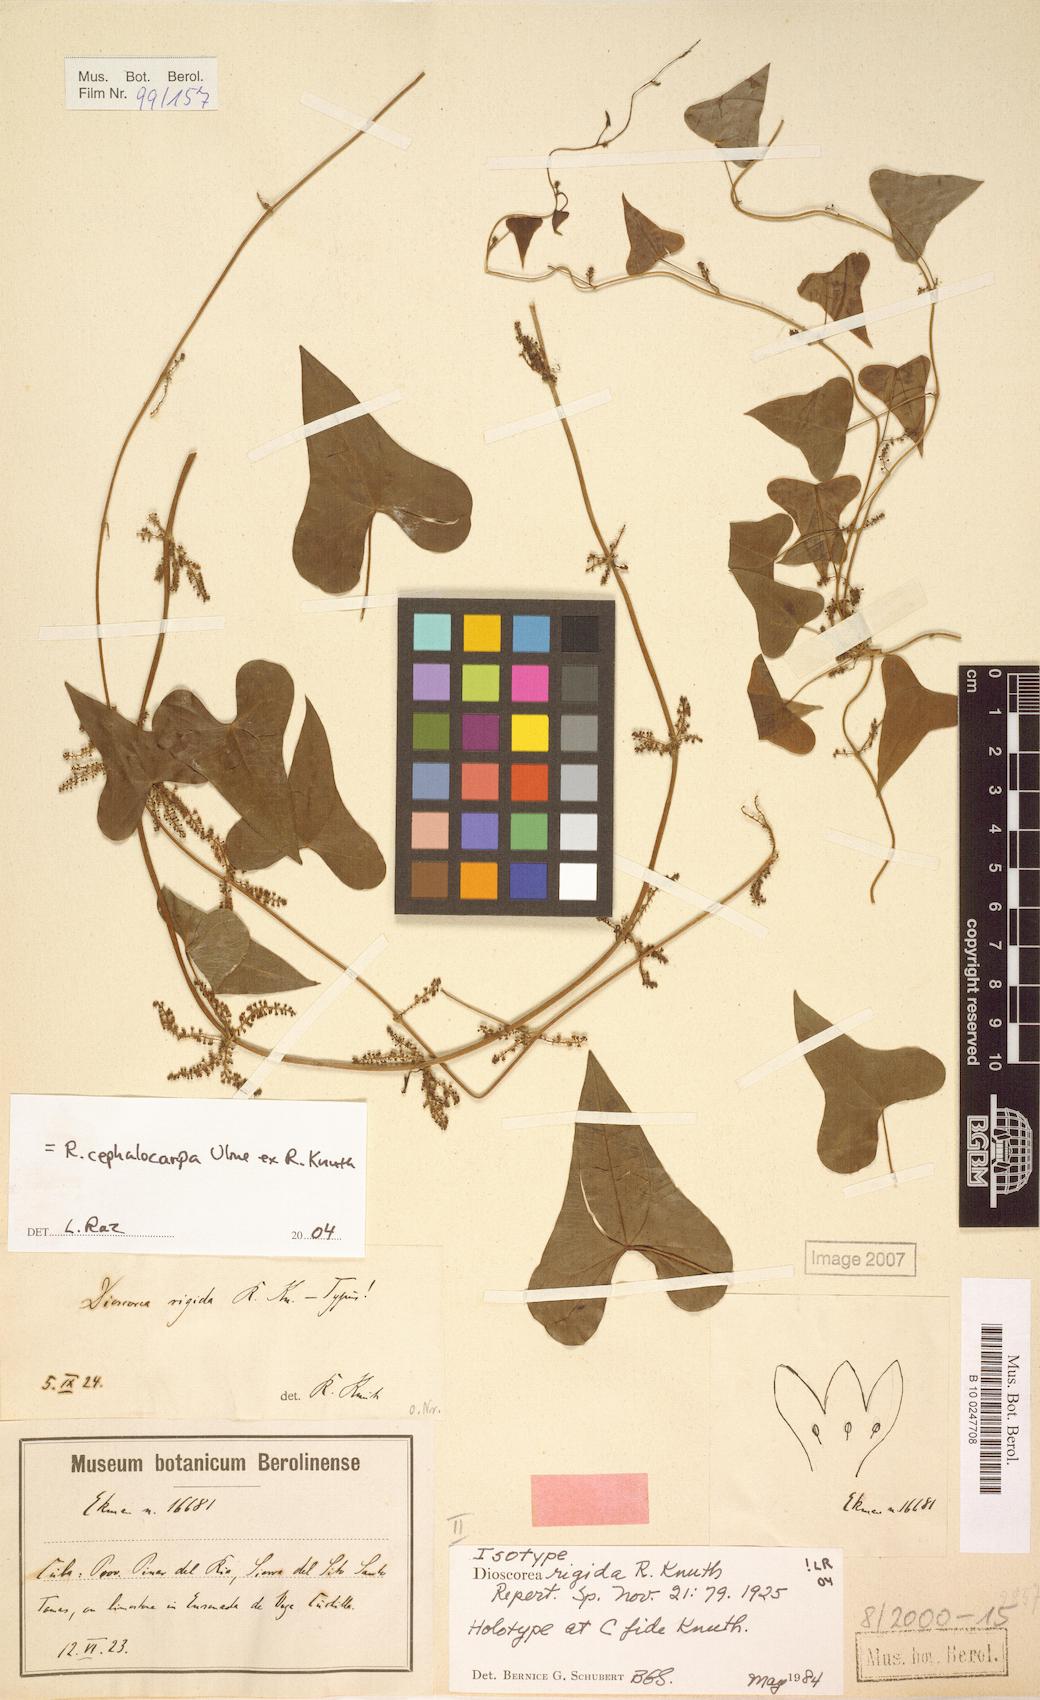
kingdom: Plantae
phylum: Tracheophyta
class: Liliopsida
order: Dioscoreales
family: Dioscoreaceae
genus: Dioscorea
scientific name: Dioscorea cephalocarpa
